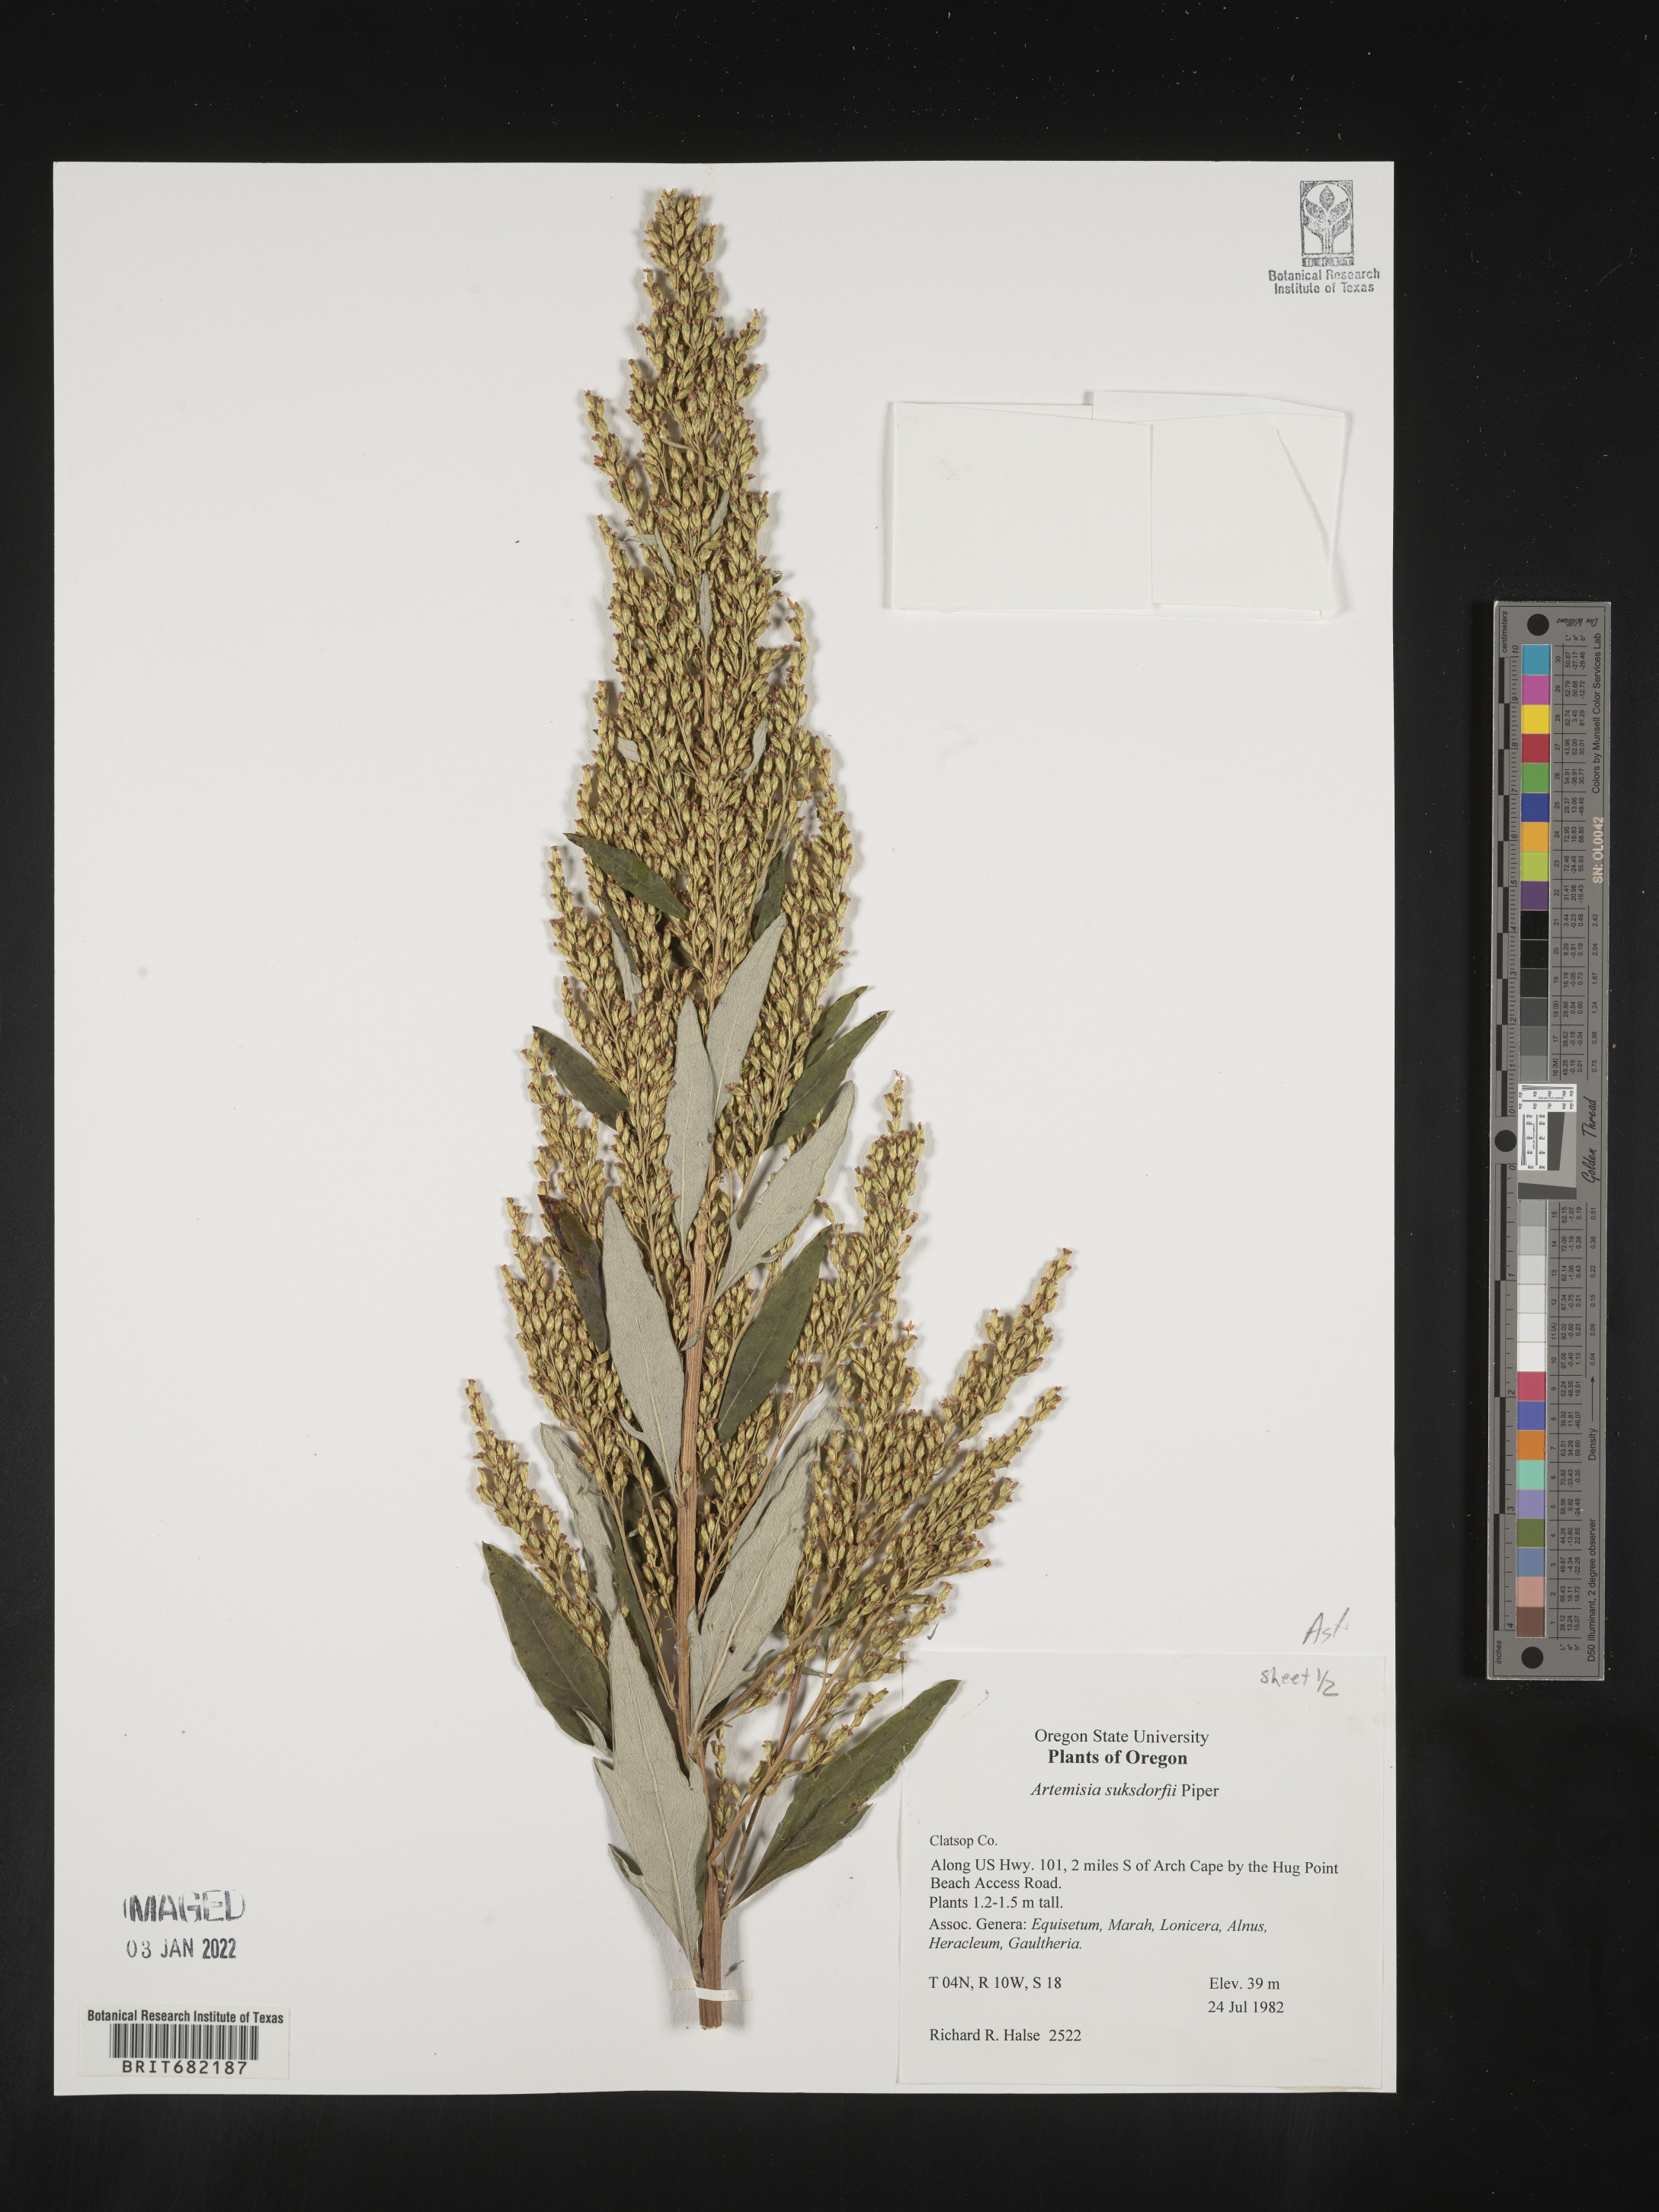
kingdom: Plantae
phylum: Tracheophyta
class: Magnoliopsida
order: Asterales
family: Asteraceae
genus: Artemisia
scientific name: Artemisia suksdorfii
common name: Suksdorf sagewort
